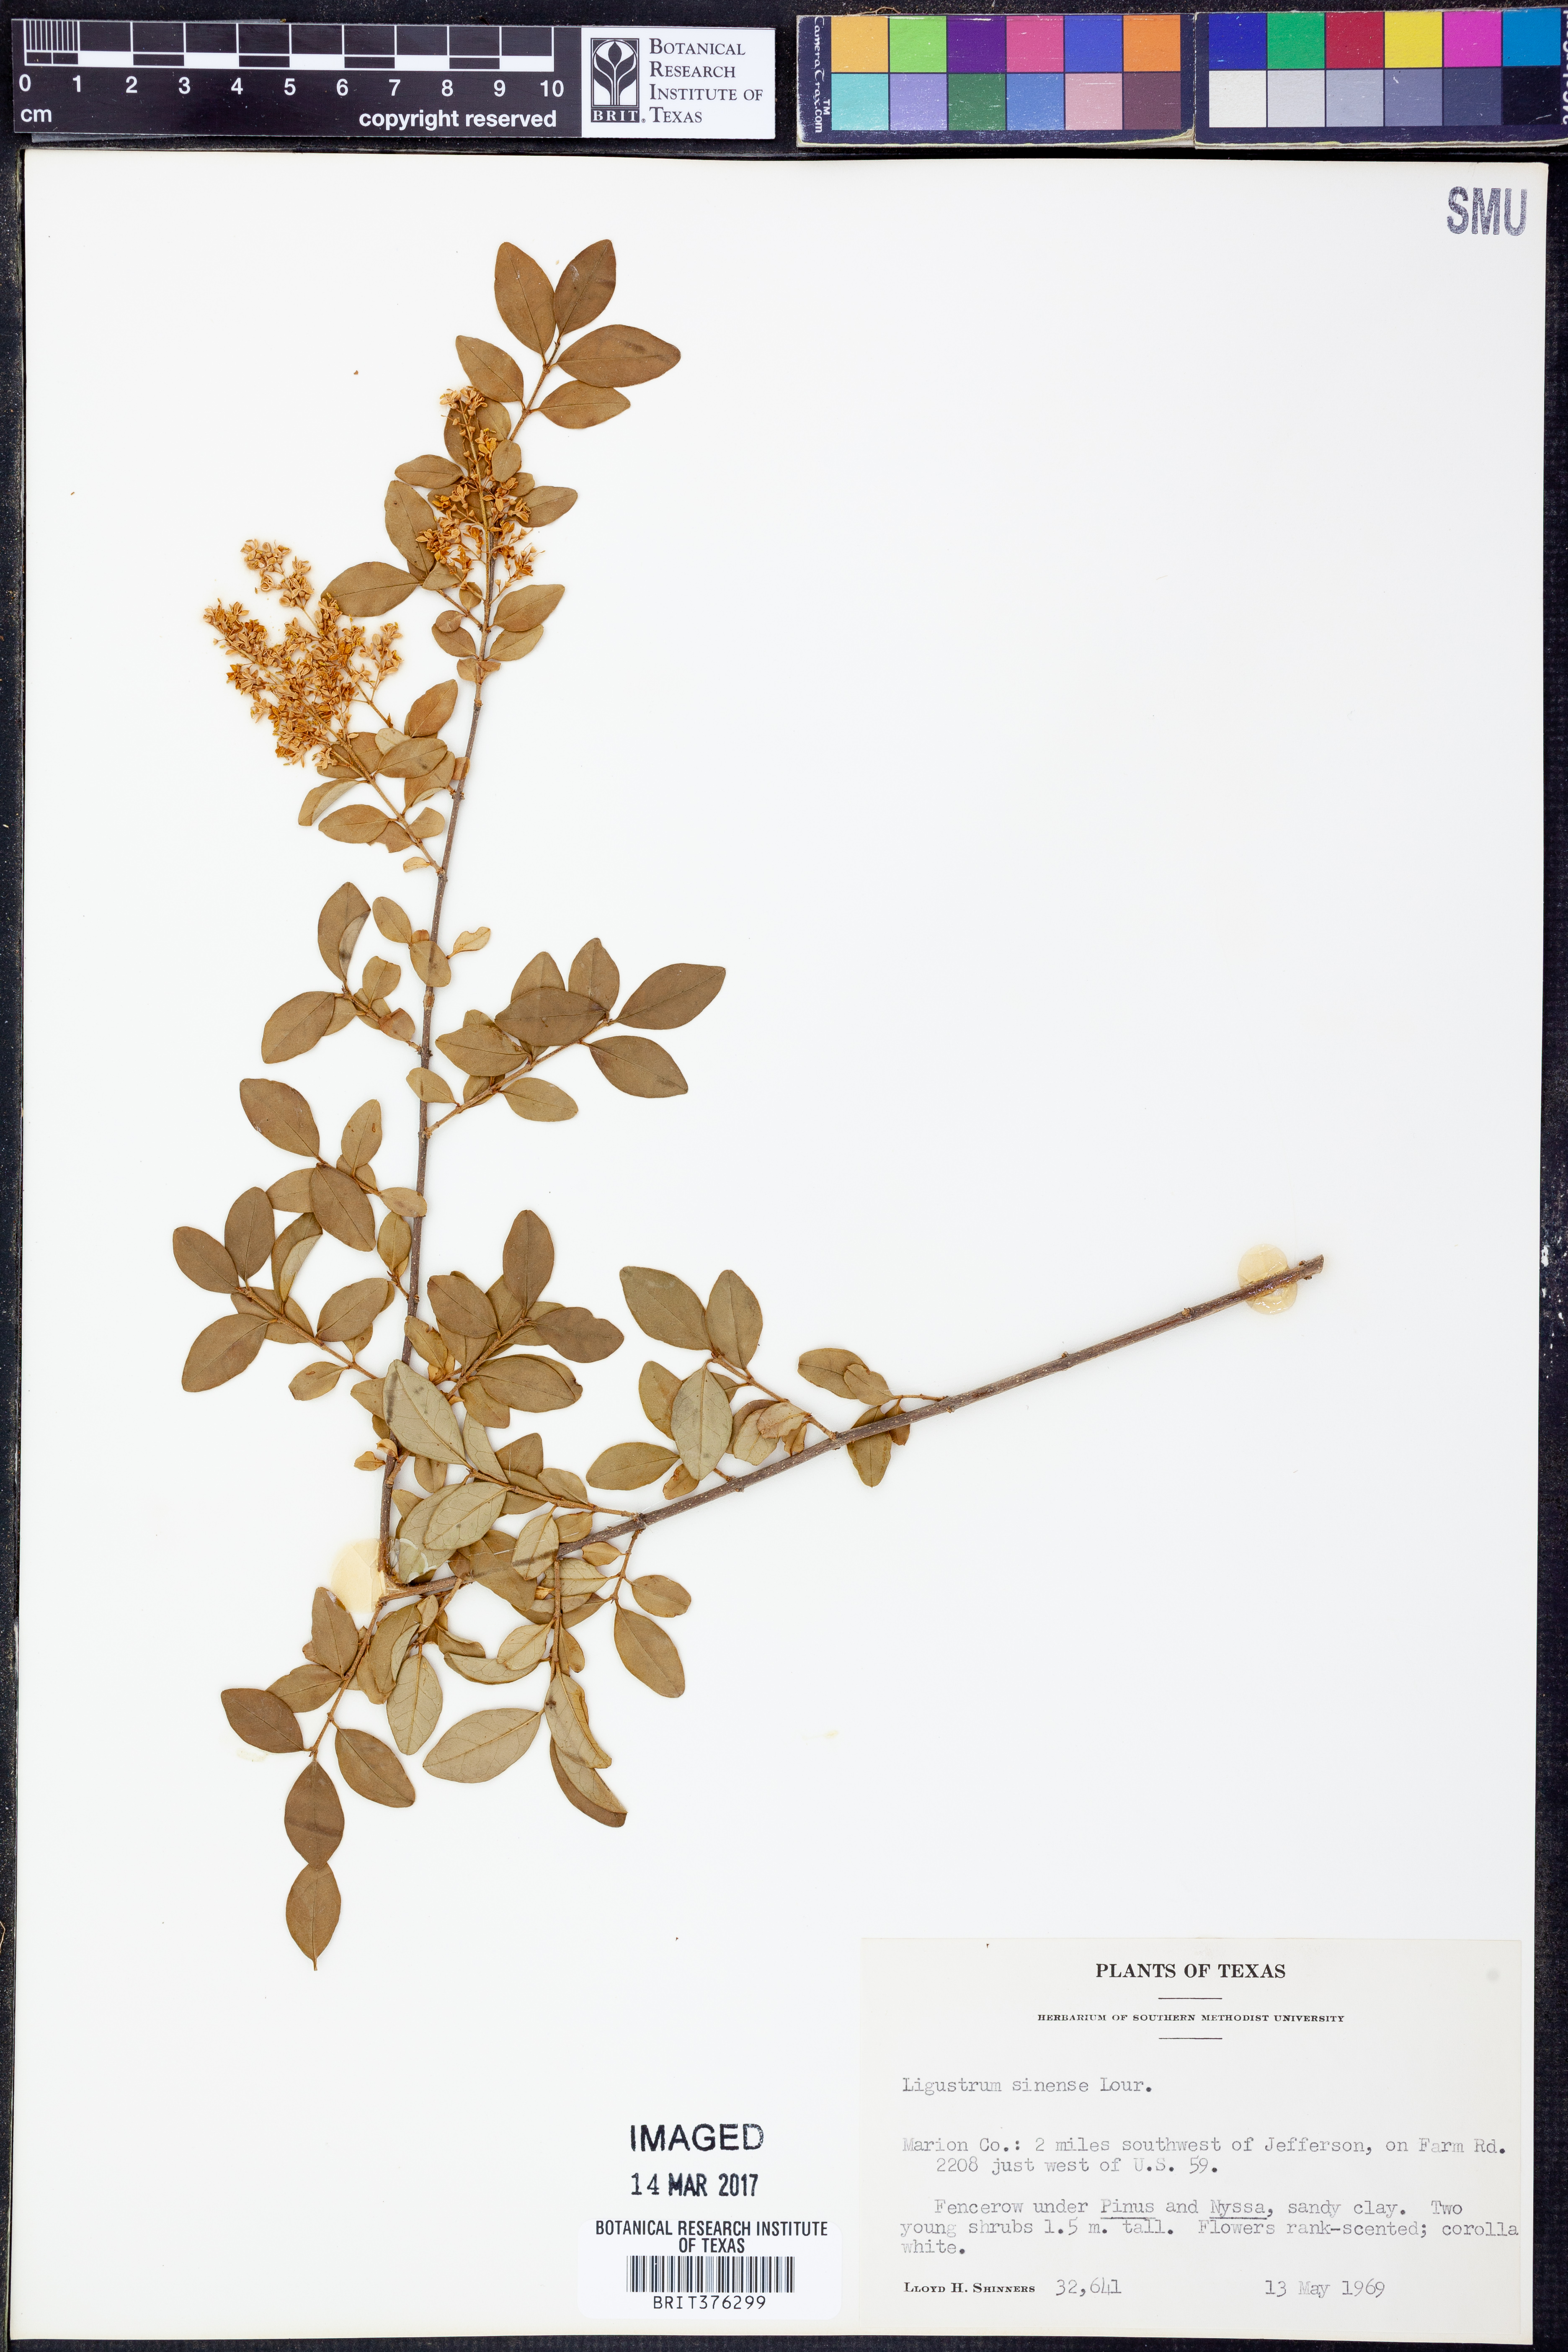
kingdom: Plantae
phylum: Tracheophyta
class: Magnoliopsida
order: Lamiales
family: Oleaceae
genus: Ligustrum
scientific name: Ligustrum sinense
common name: Chinese privet
